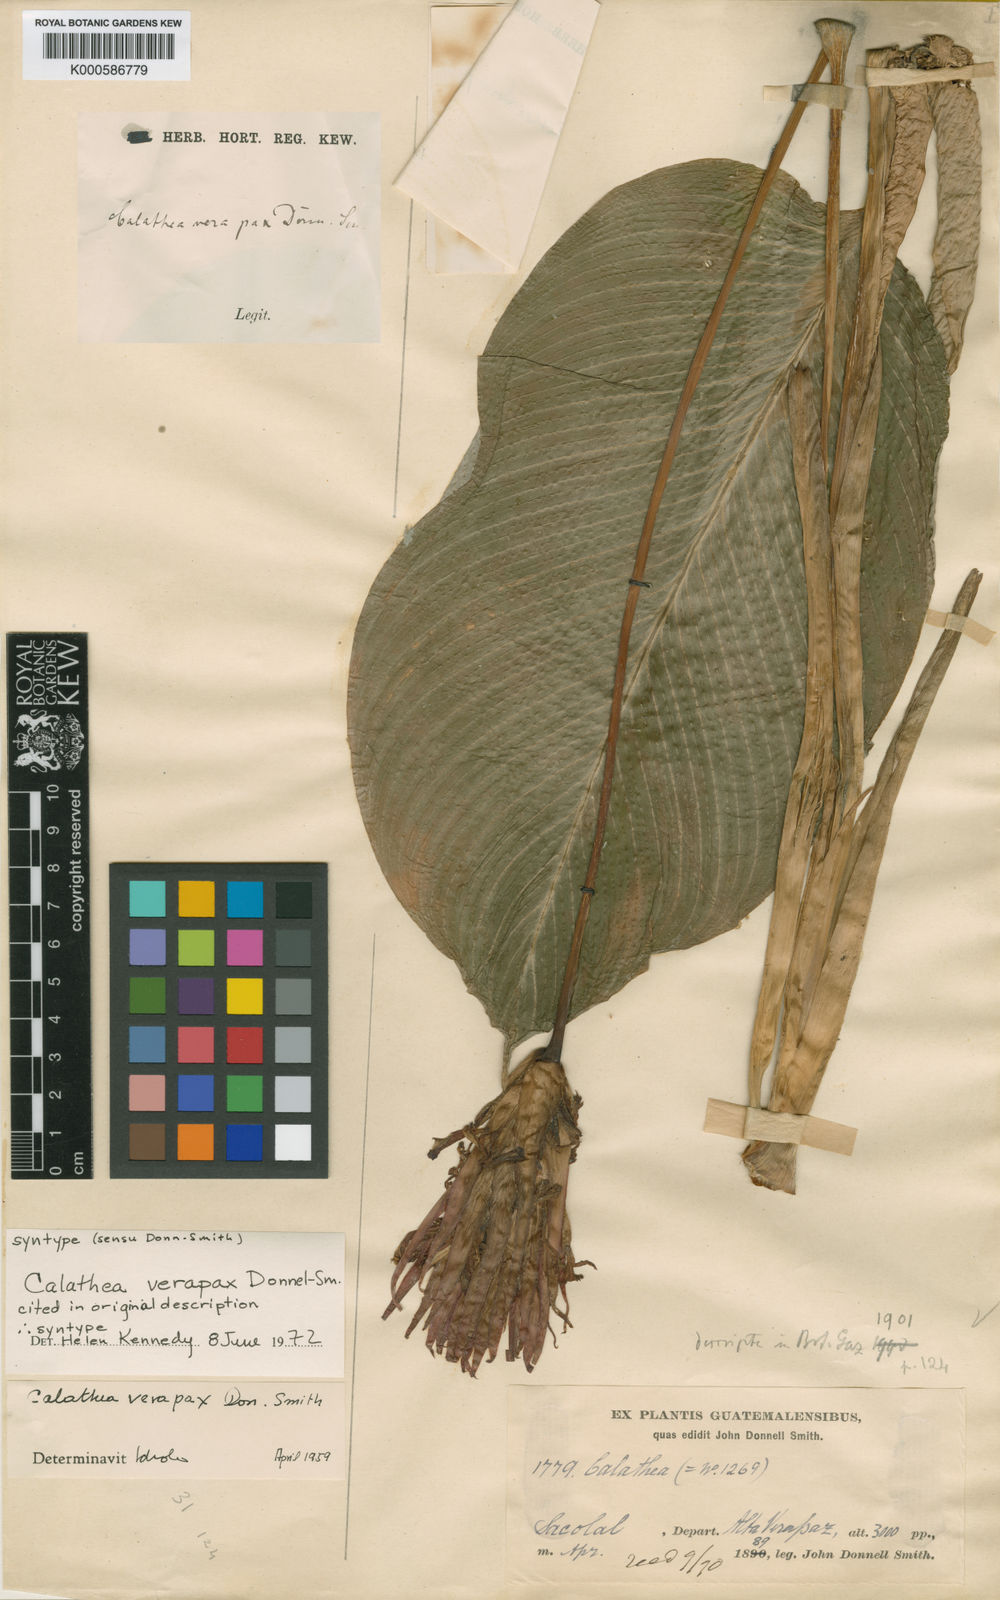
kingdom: Plantae
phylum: Tracheophyta
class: Liliopsida
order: Zingiberales
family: Marantaceae
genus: Goeppertia
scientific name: Goeppertia verapax
